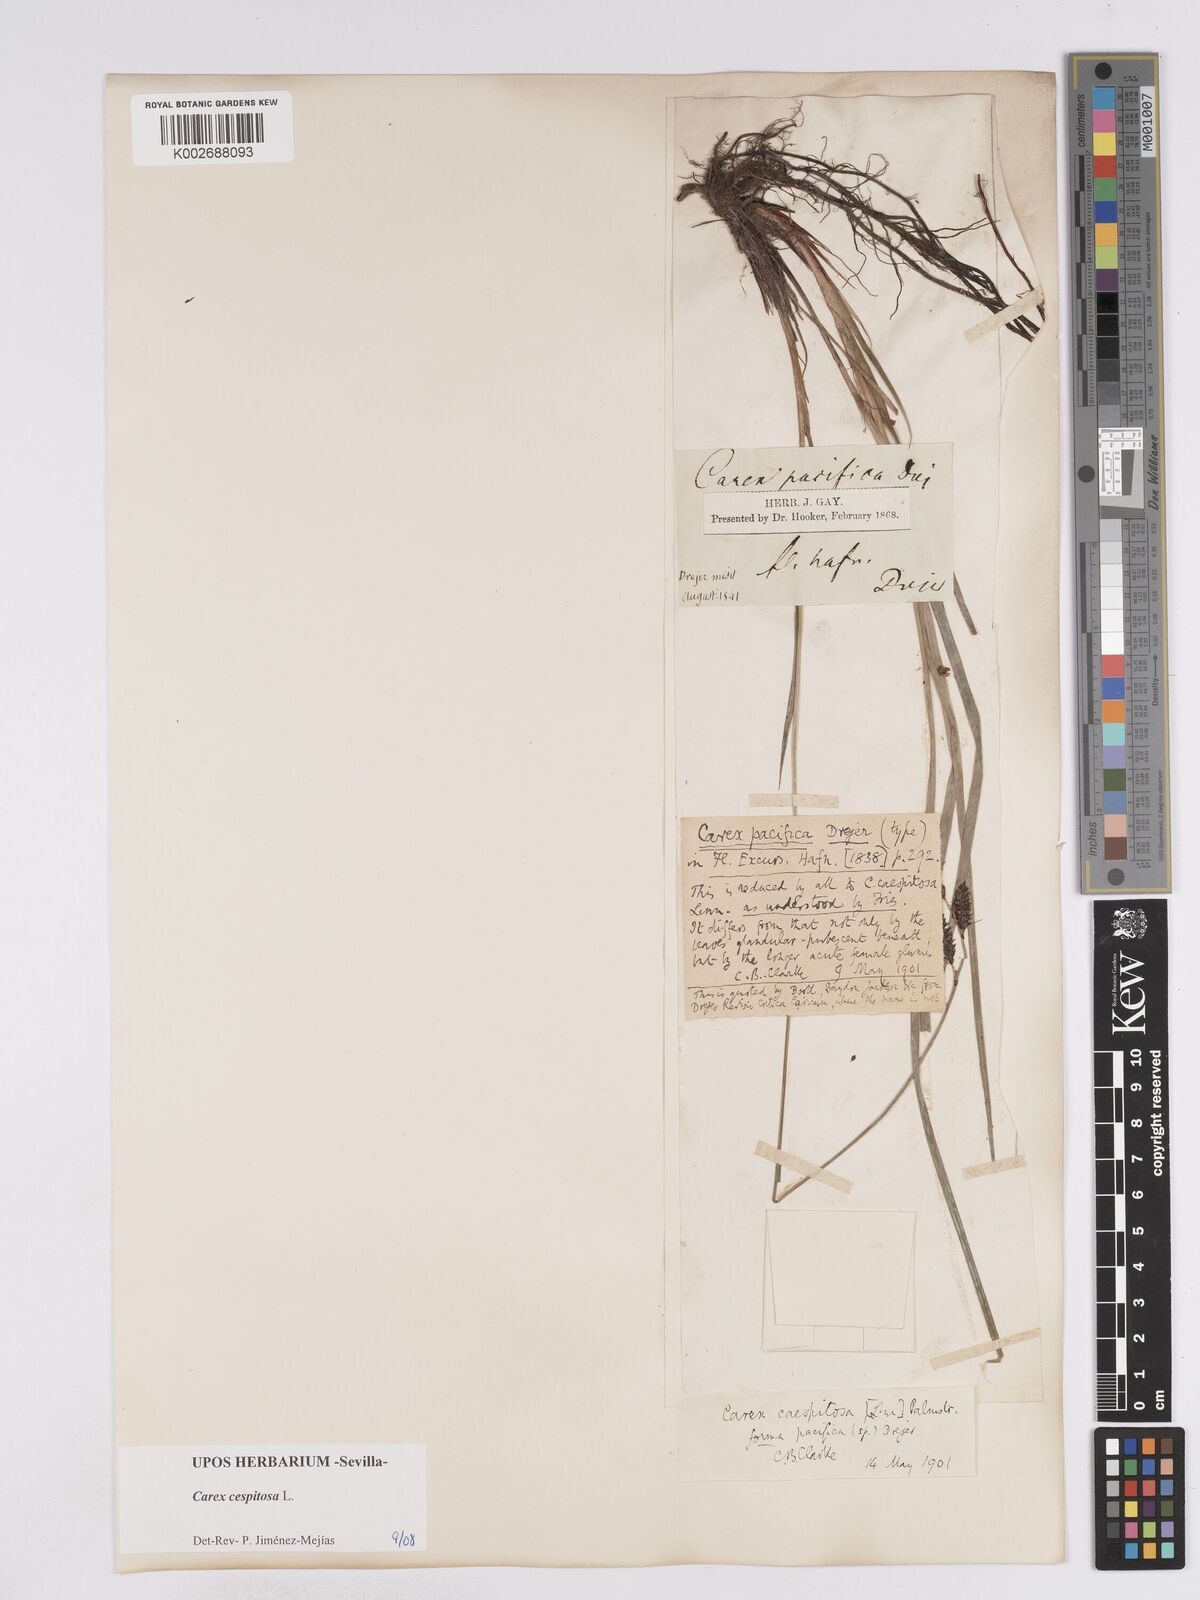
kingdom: Plantae
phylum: Tracheophyta
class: Liliopsida
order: Poales
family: Cyperaceae
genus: Carex
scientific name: Carex
